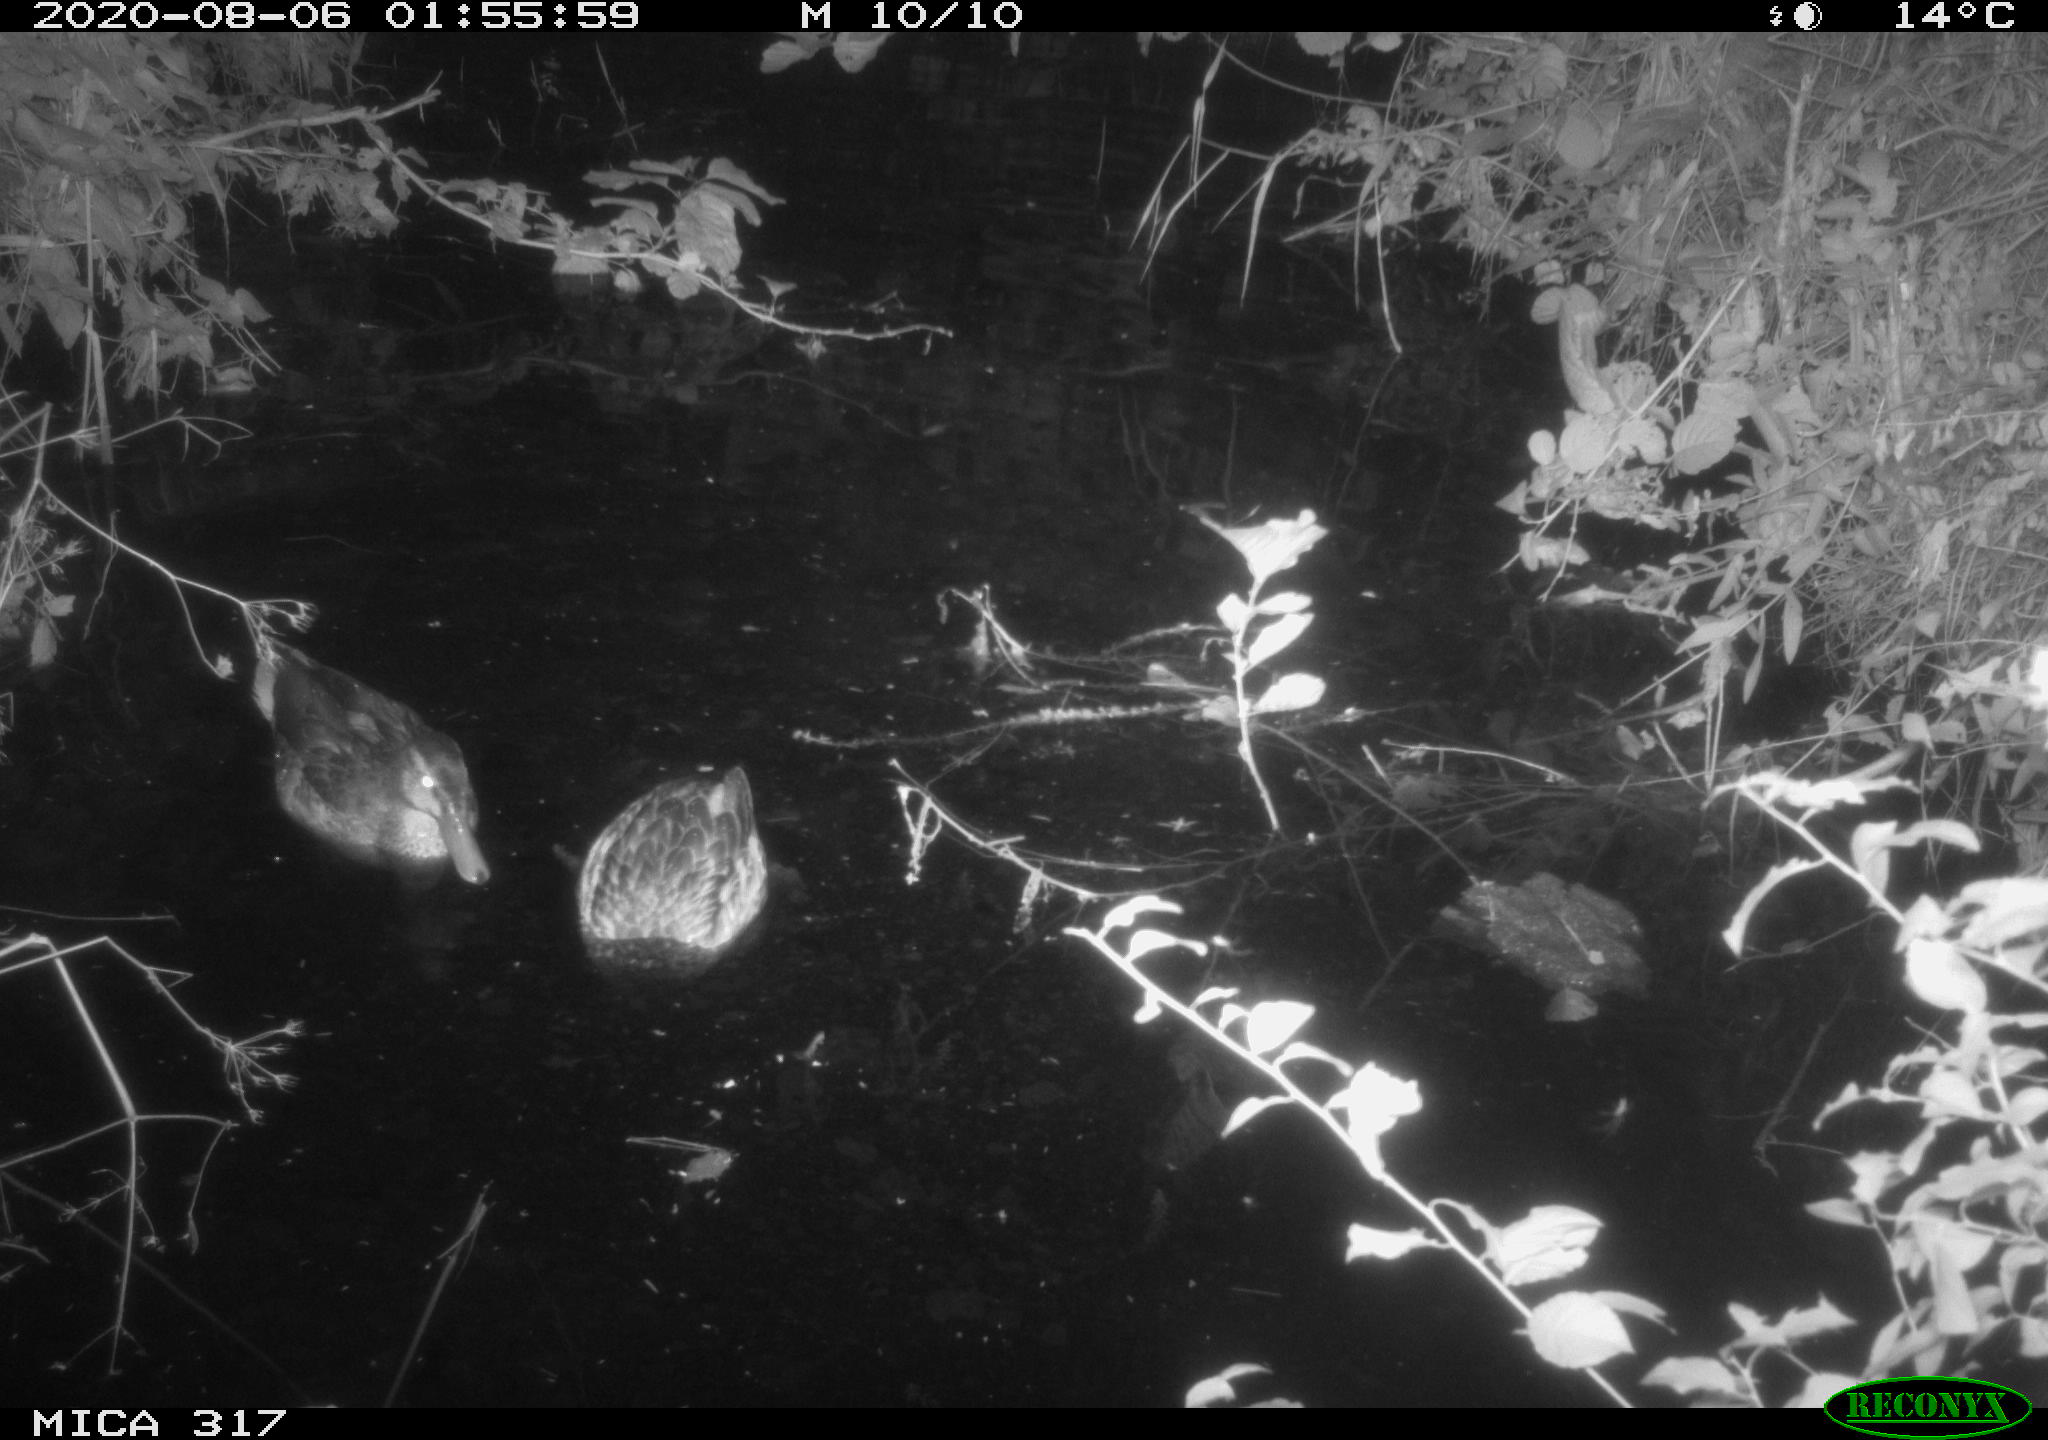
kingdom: Animalia
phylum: Chordata
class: Aves
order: Anseriformes
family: Anatidae
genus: Anas
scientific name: Anas platyrhynchos
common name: Mallard
